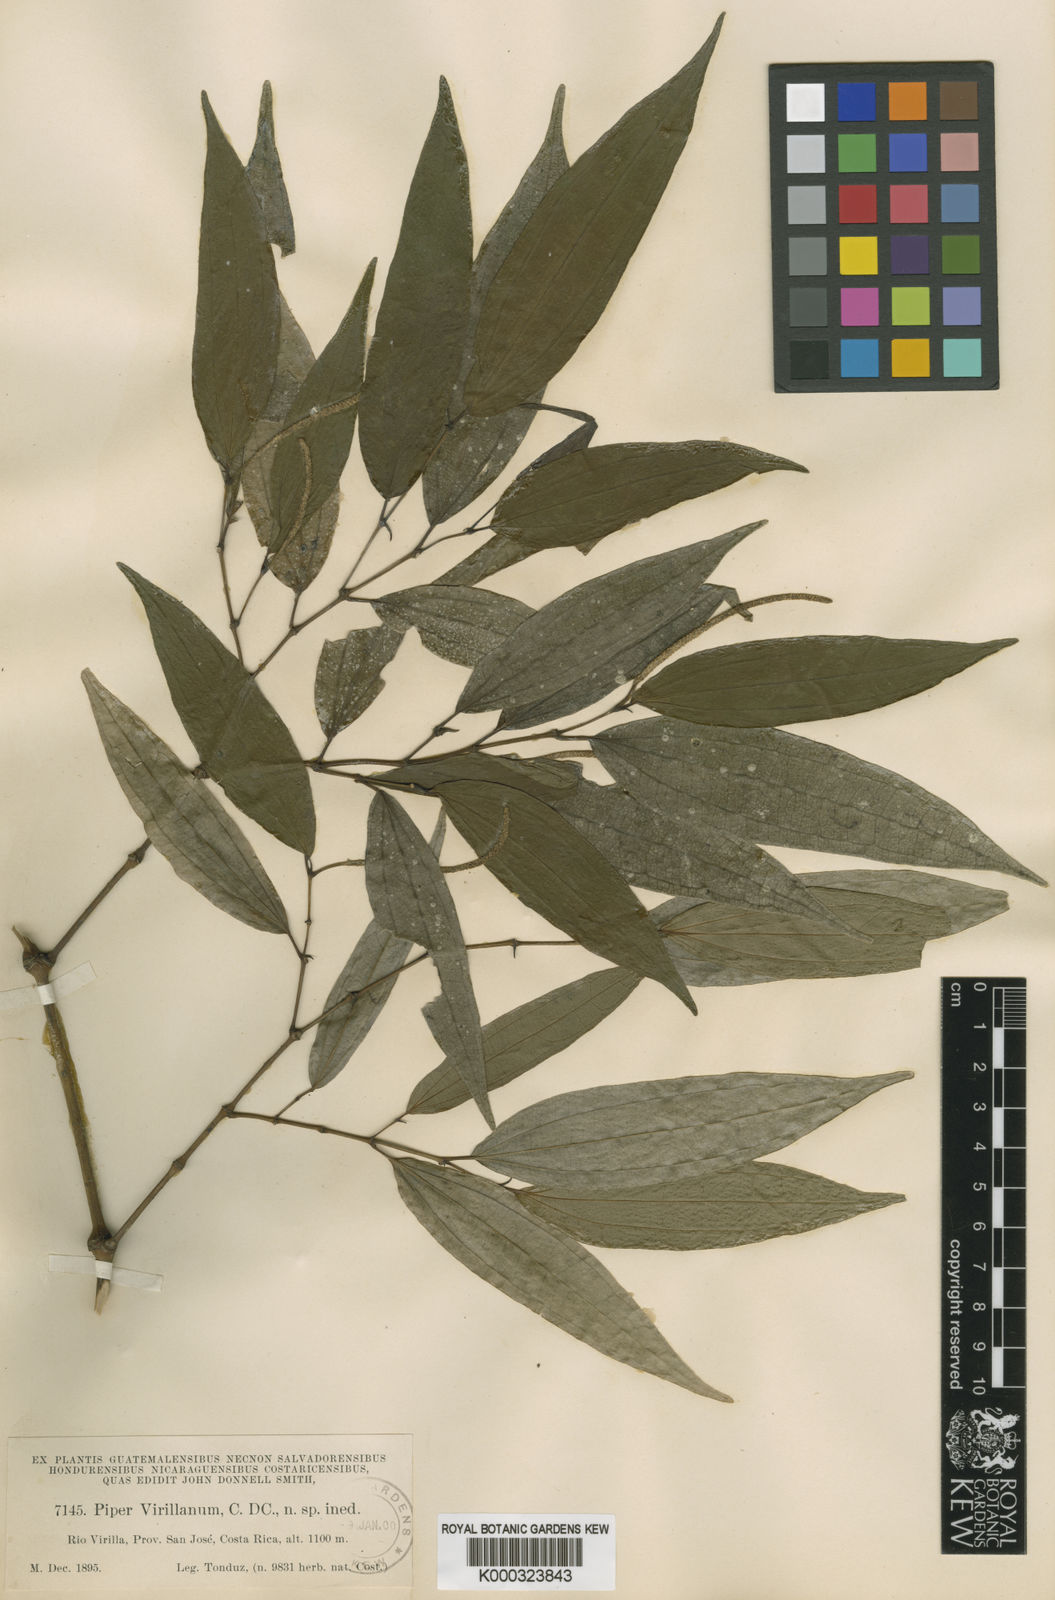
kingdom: Plantae
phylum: Tracheophyta
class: Magnoliopsida
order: Piperales
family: Piperaceae
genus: Piper
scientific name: Piper uhdei
